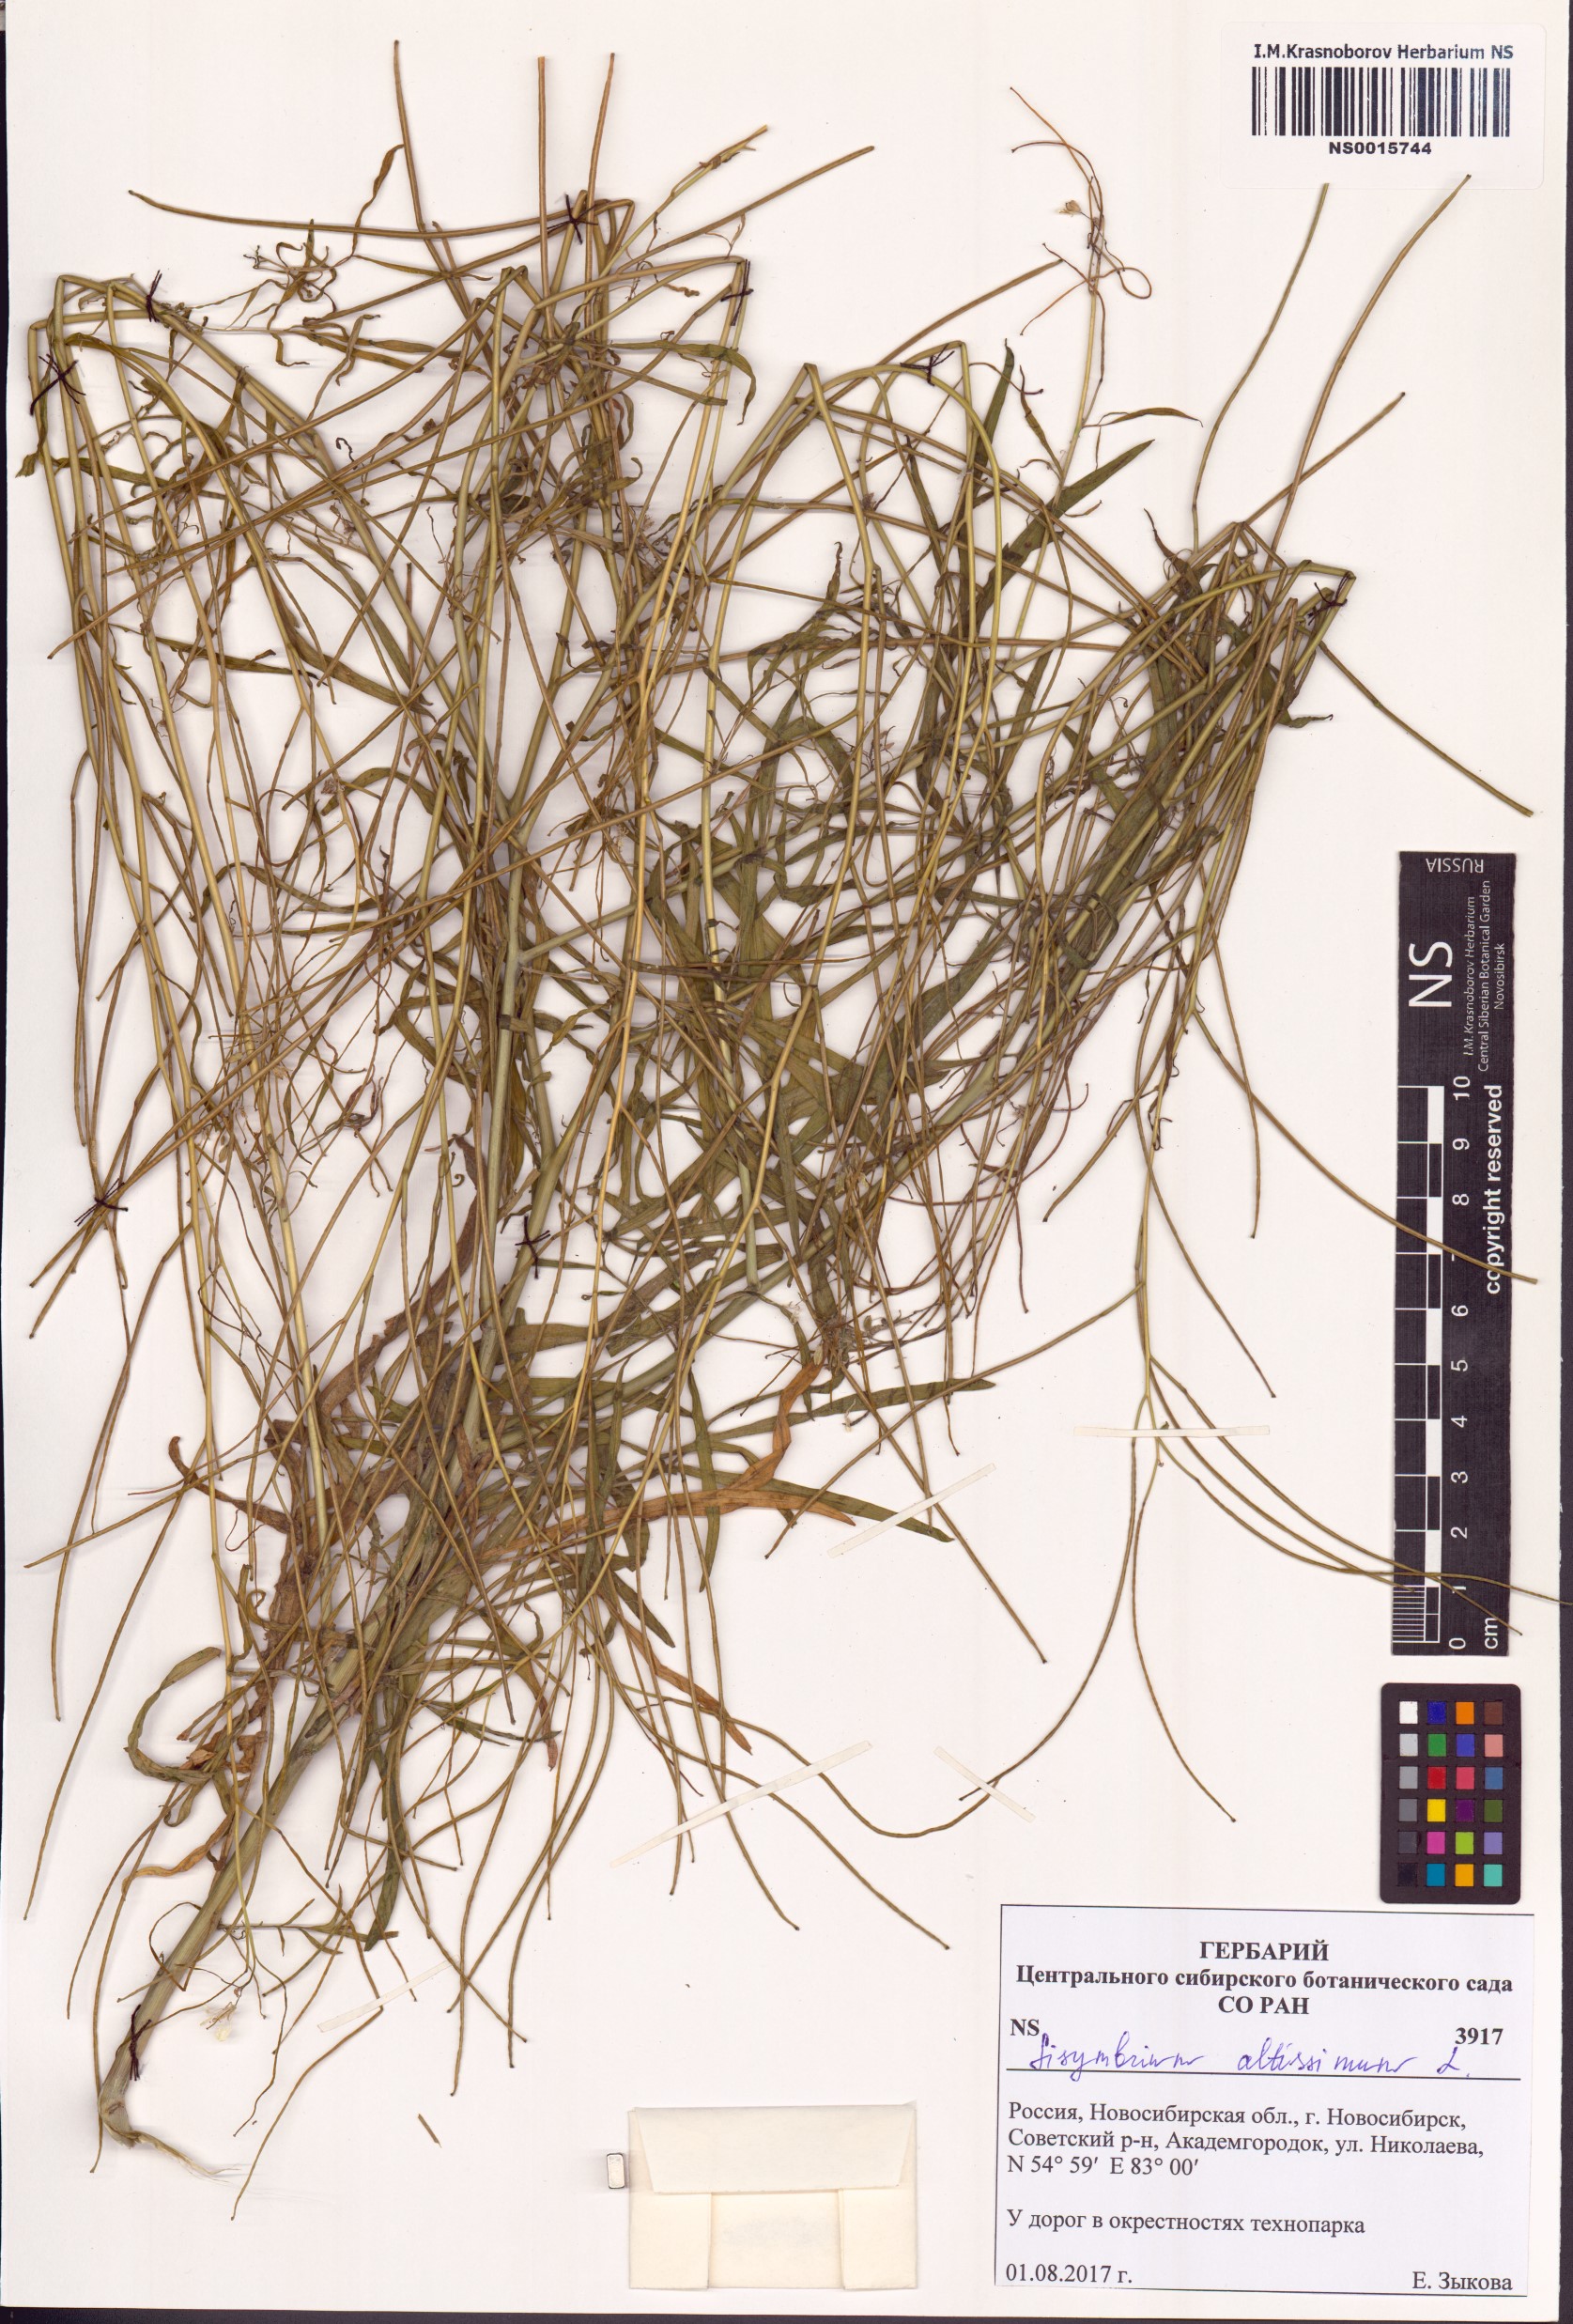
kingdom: Plantae
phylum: Tracheophyta
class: Magnoliopsida
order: Brassicales
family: Brassicaceae
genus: Sisymbrium
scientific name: Sisymbrium altissimum
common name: Tall rocket
